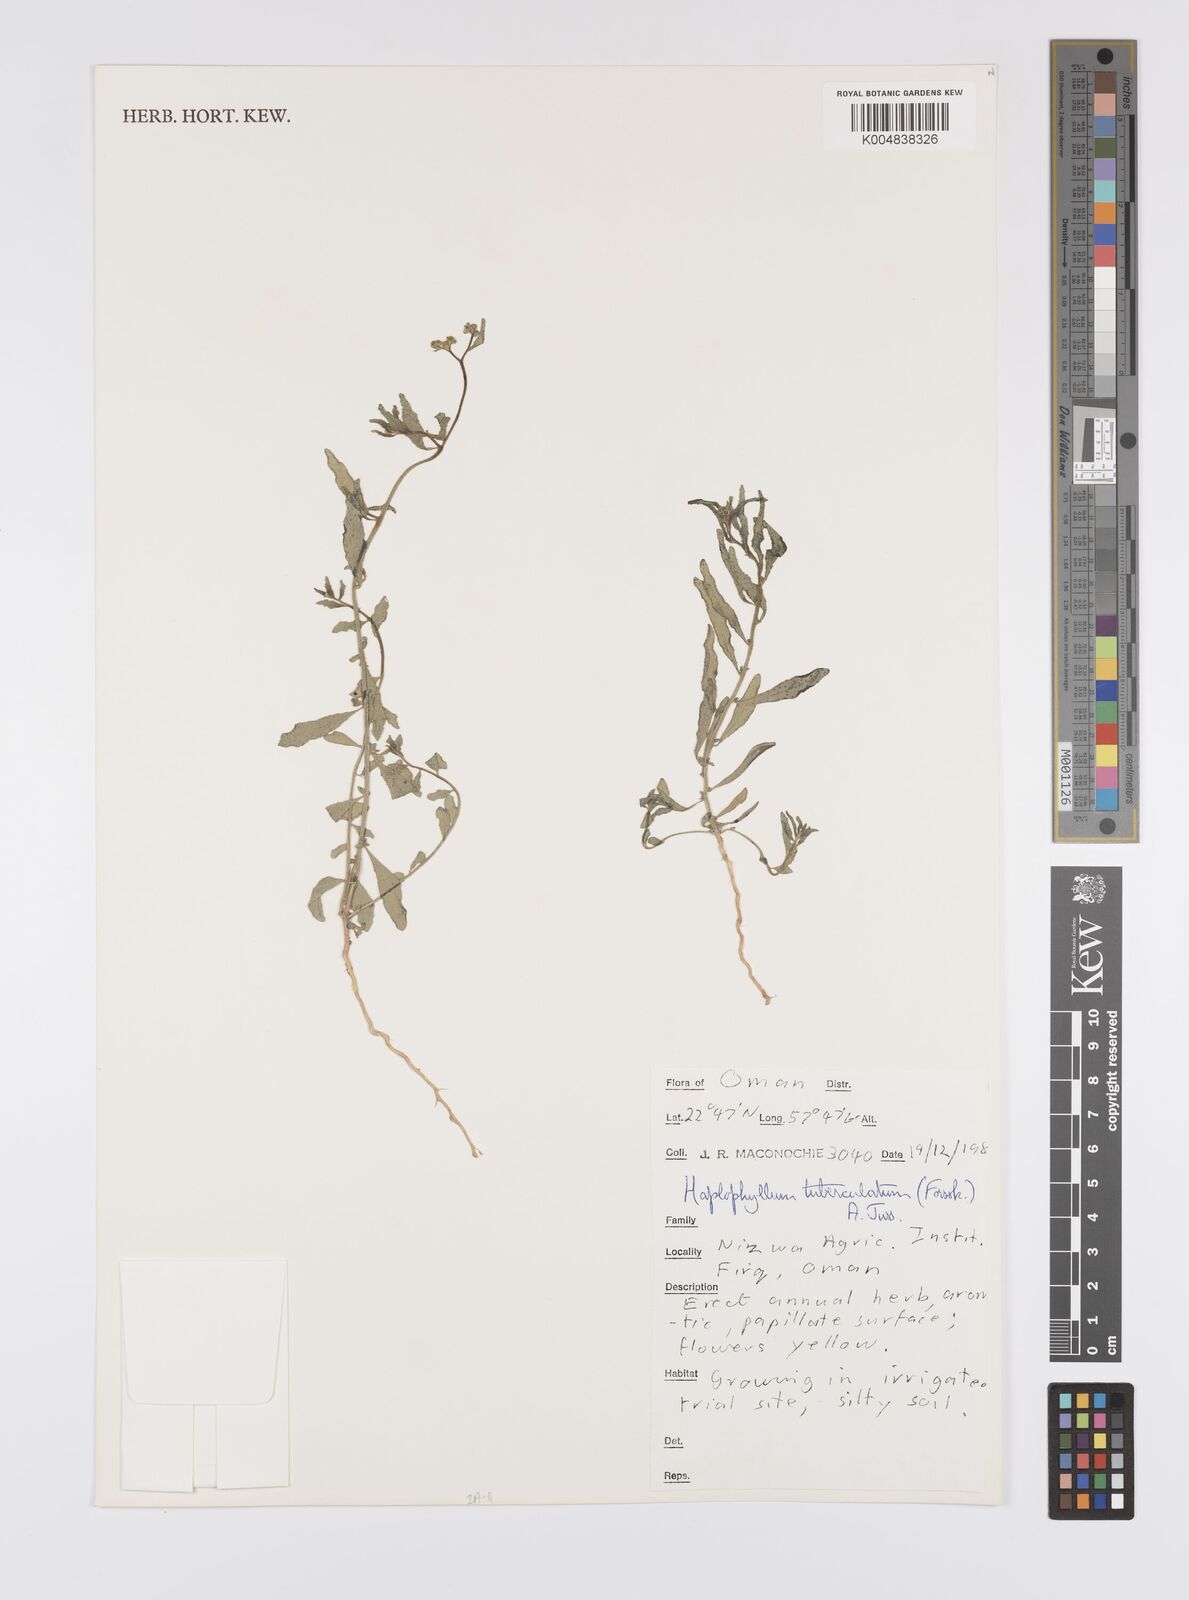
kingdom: Plantae
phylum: Tracheophyta
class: Magnoliopsida
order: Sapindales
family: Rutaceae
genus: Haplophyllum
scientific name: Haplophyllum tuberculatum
